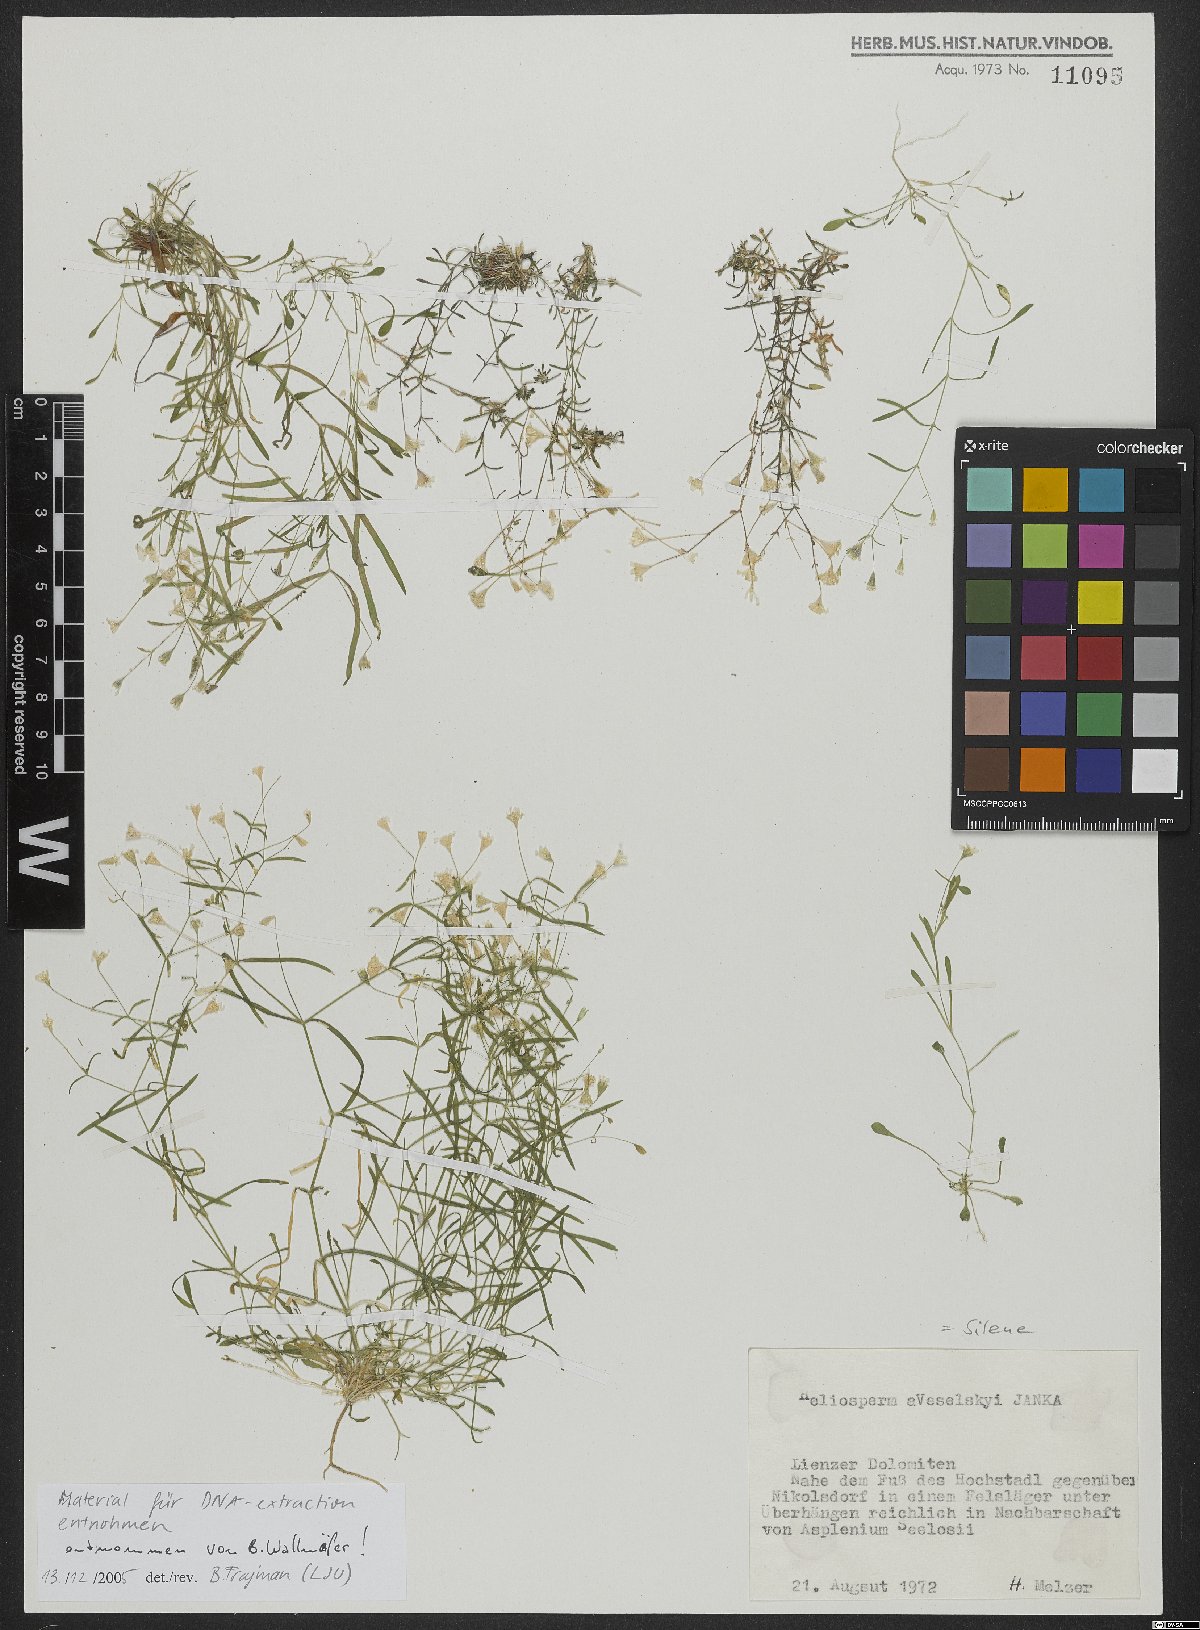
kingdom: Plantae
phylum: Tracheophyta
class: Magnoliopsida
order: Caryophyllales
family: Caryophyllaceae
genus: Heliosperma
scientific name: Heliosperma veselskyi
